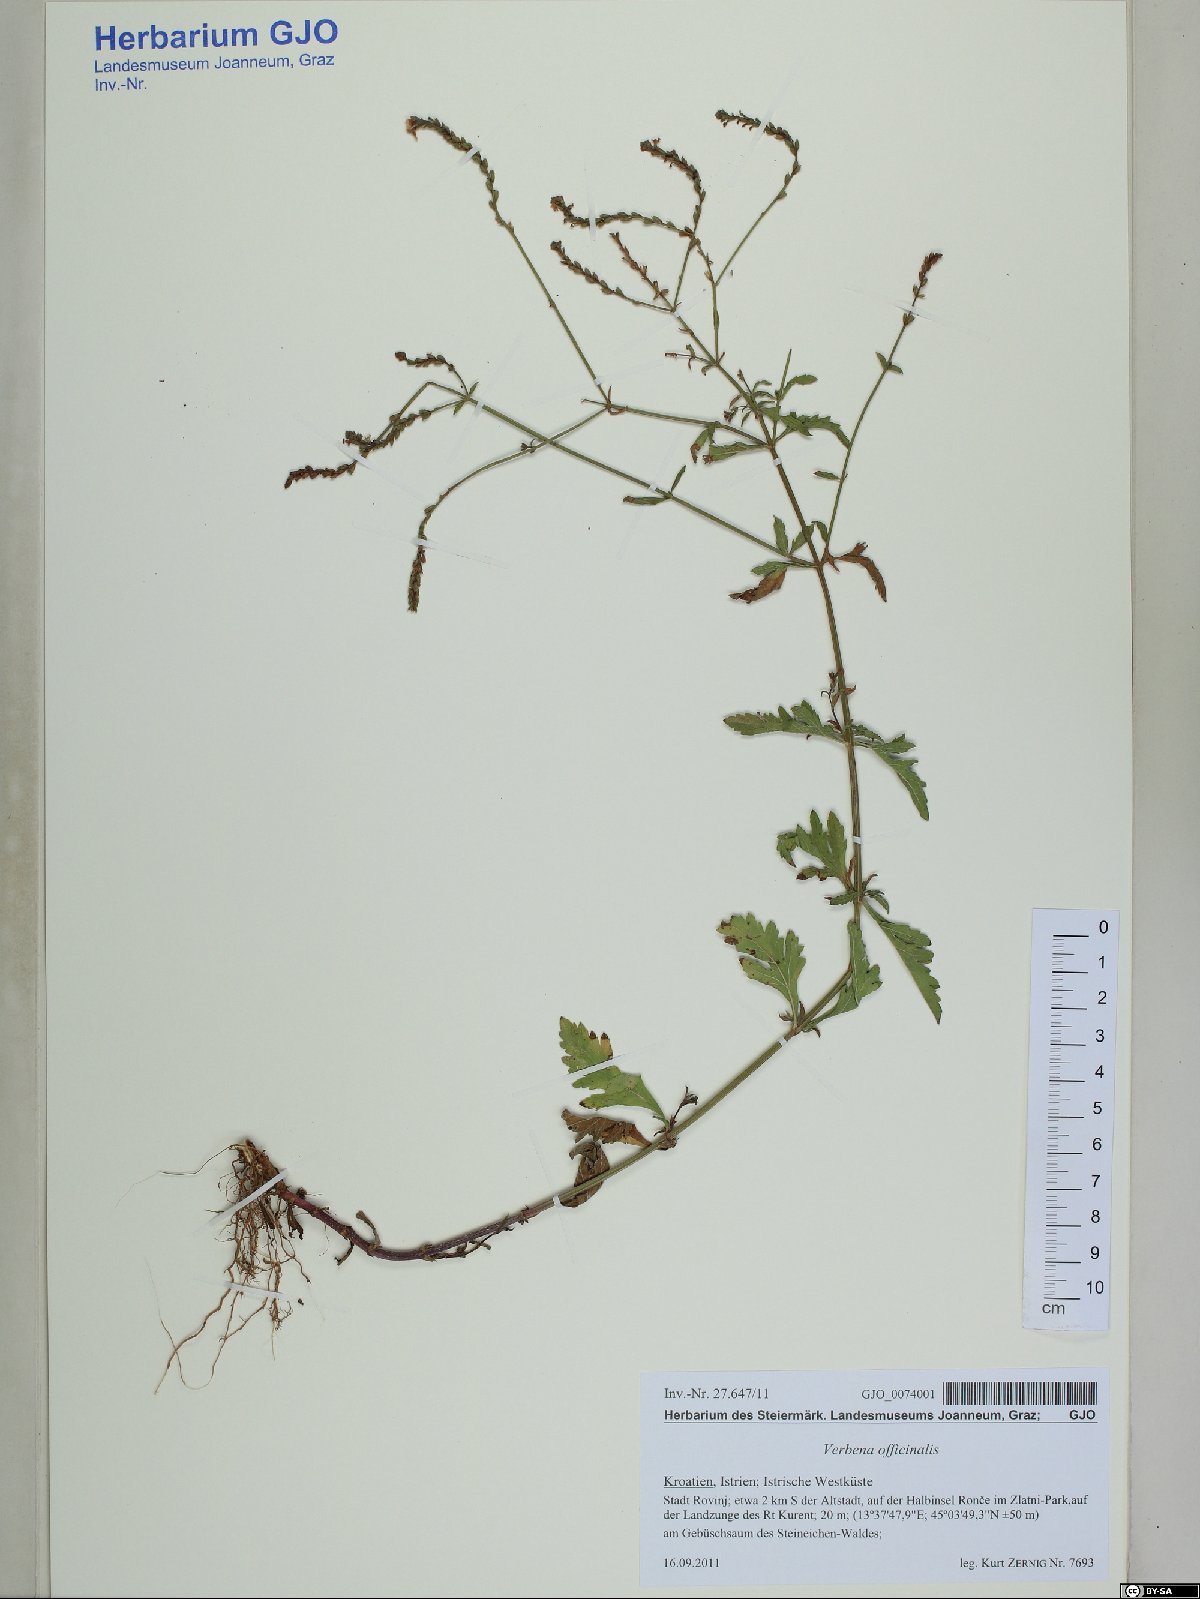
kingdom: Plantae
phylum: Tracheophyta
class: Magnoliopsida
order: Lamiales
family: Verbenaceae
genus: Verbena
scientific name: Verbena officinalis
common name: Vervain
